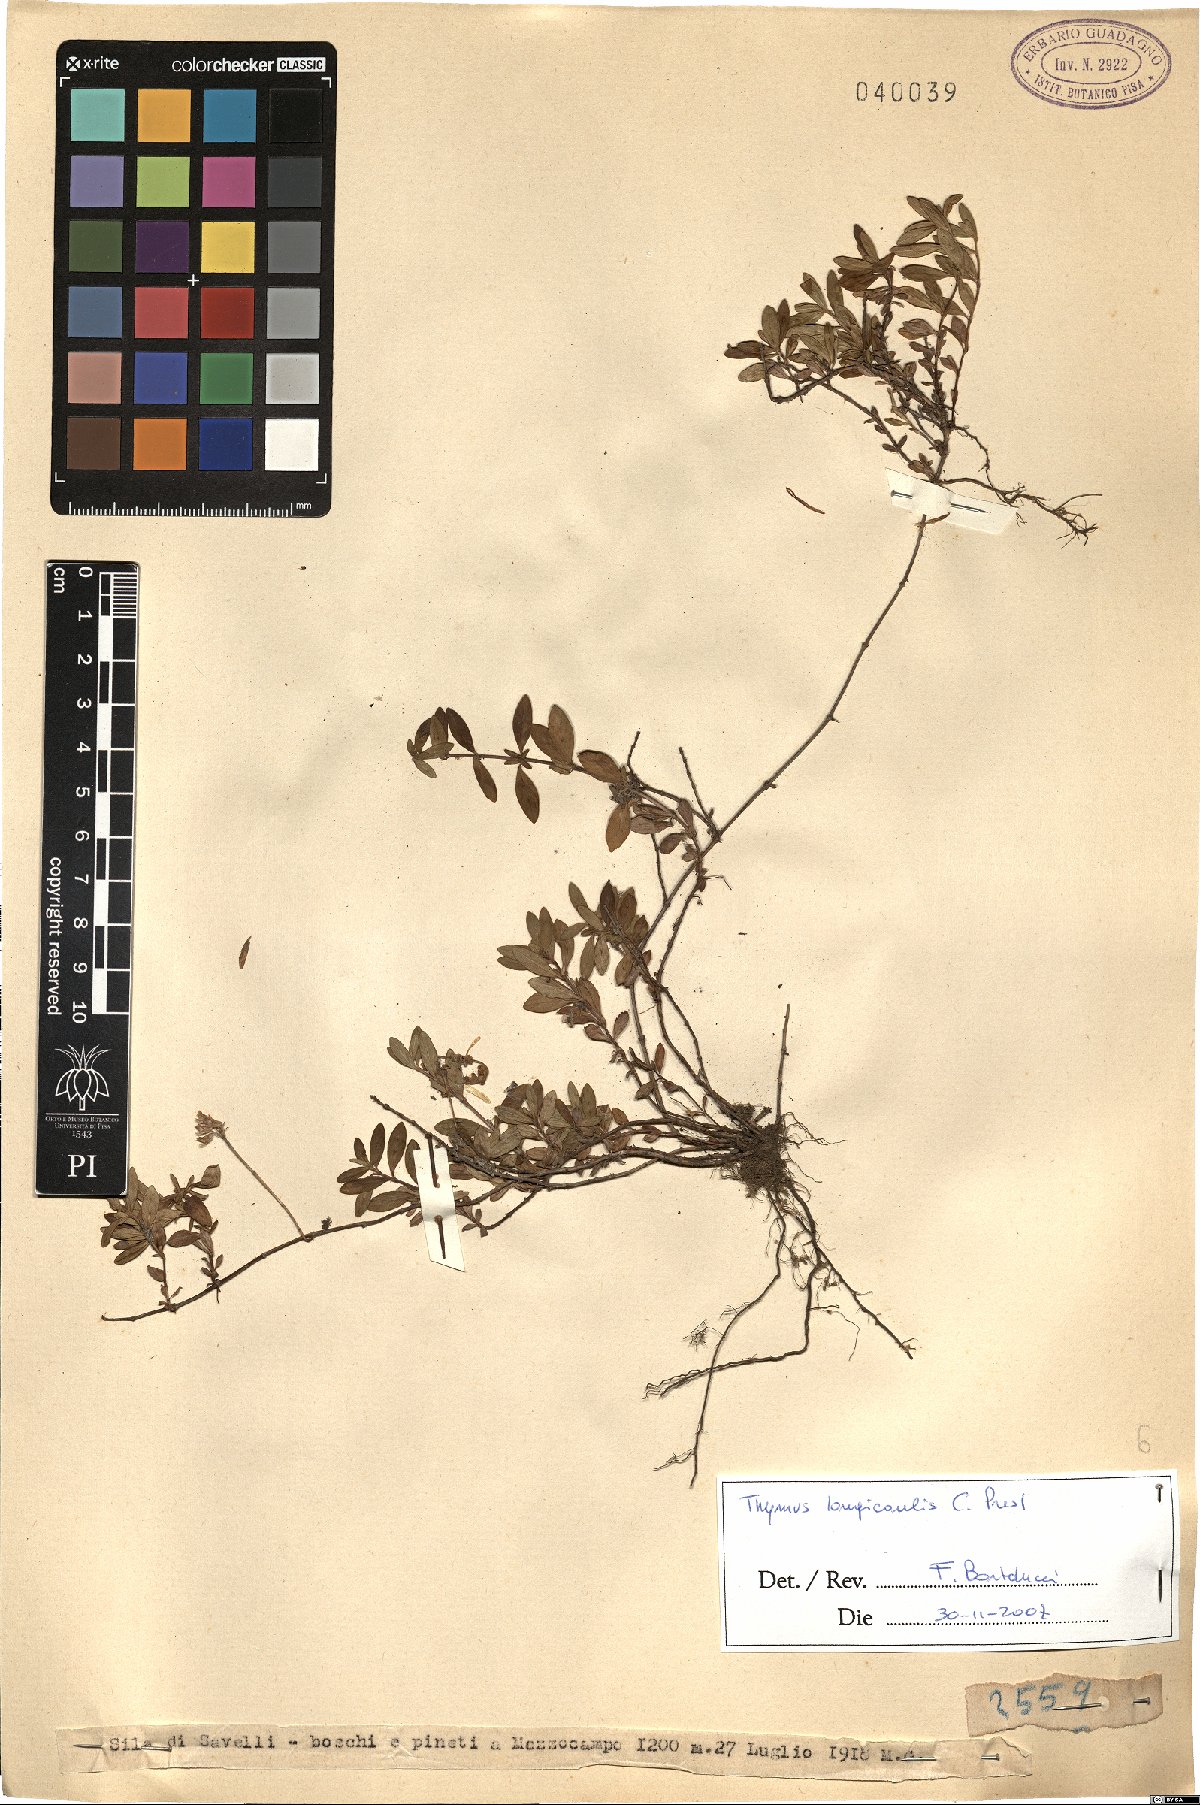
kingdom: Plantae
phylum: Tracheophyta
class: Magnoliopsida
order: Lamiales
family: Lamiaceae
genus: Thymus
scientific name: Thymus longicaulis
